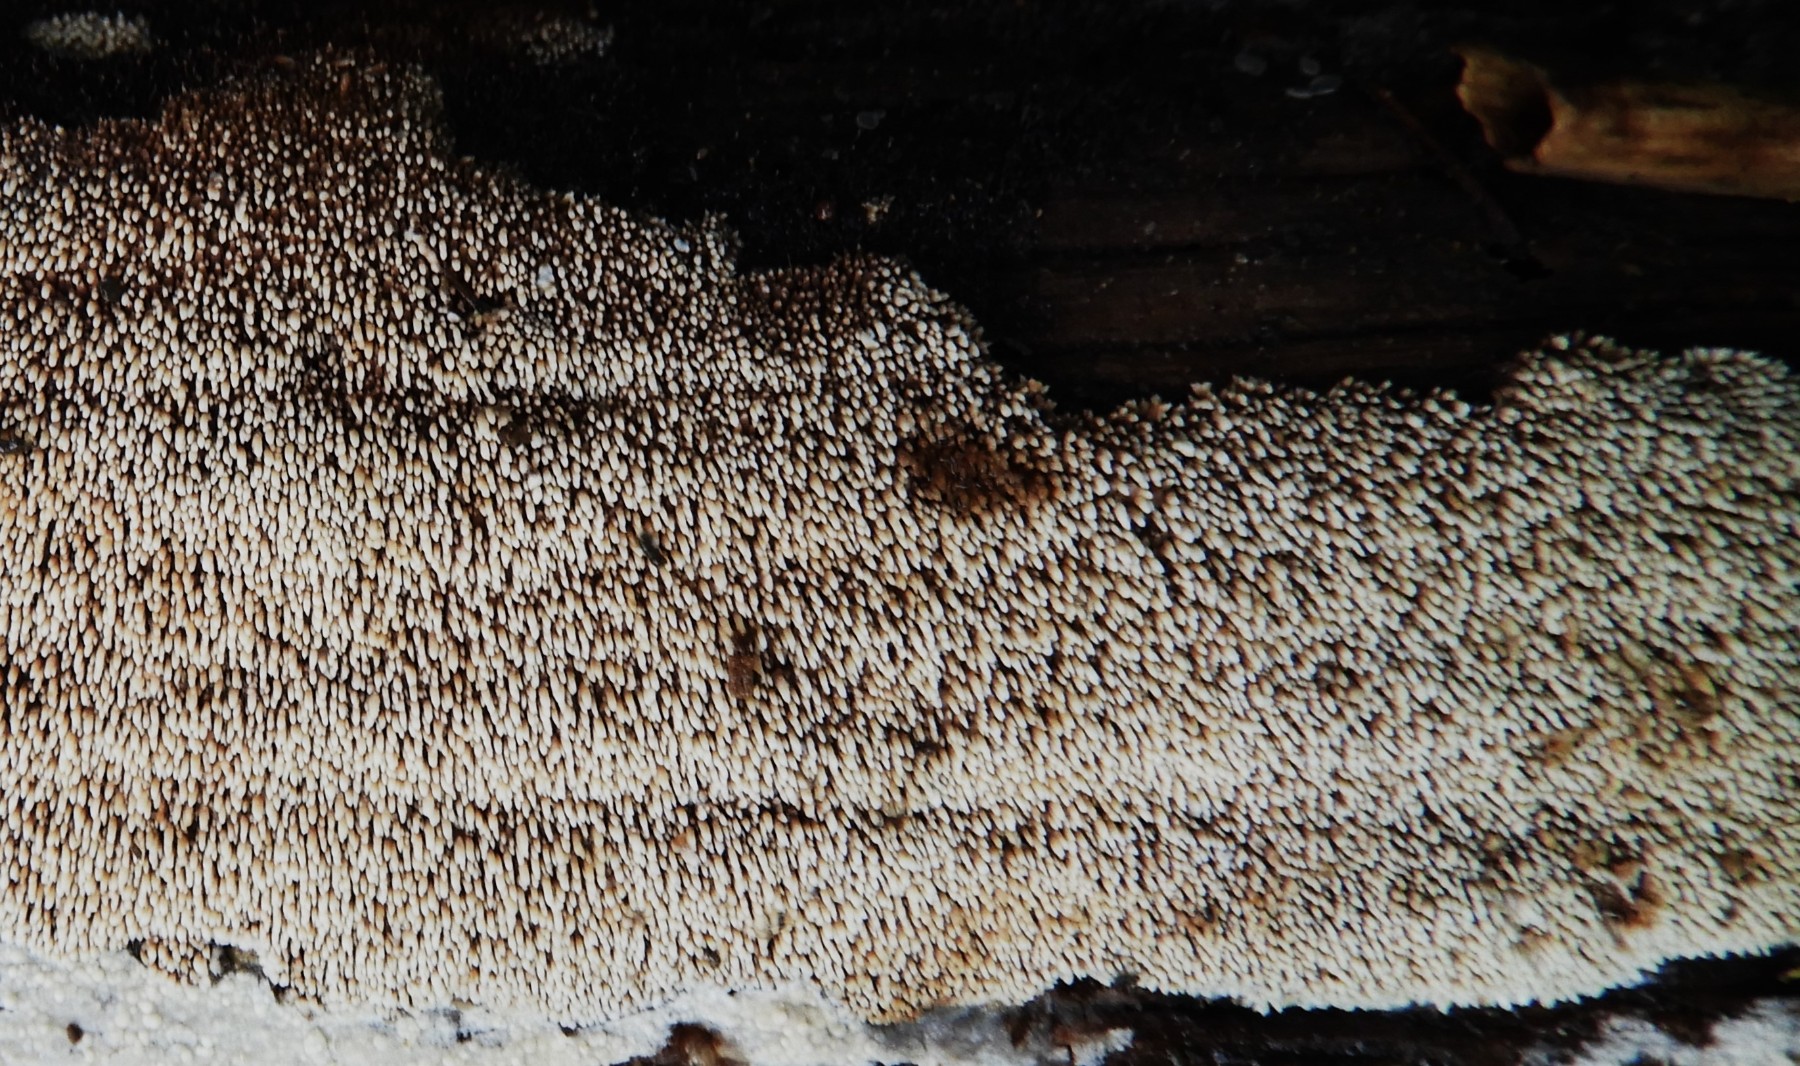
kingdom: Fungi
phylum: Basidiomycota
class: Agaricomycetes
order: Polyporales
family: Meruliaceae
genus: Mycoacia
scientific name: Mycoacia fuscoatra
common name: mørk vokspig
